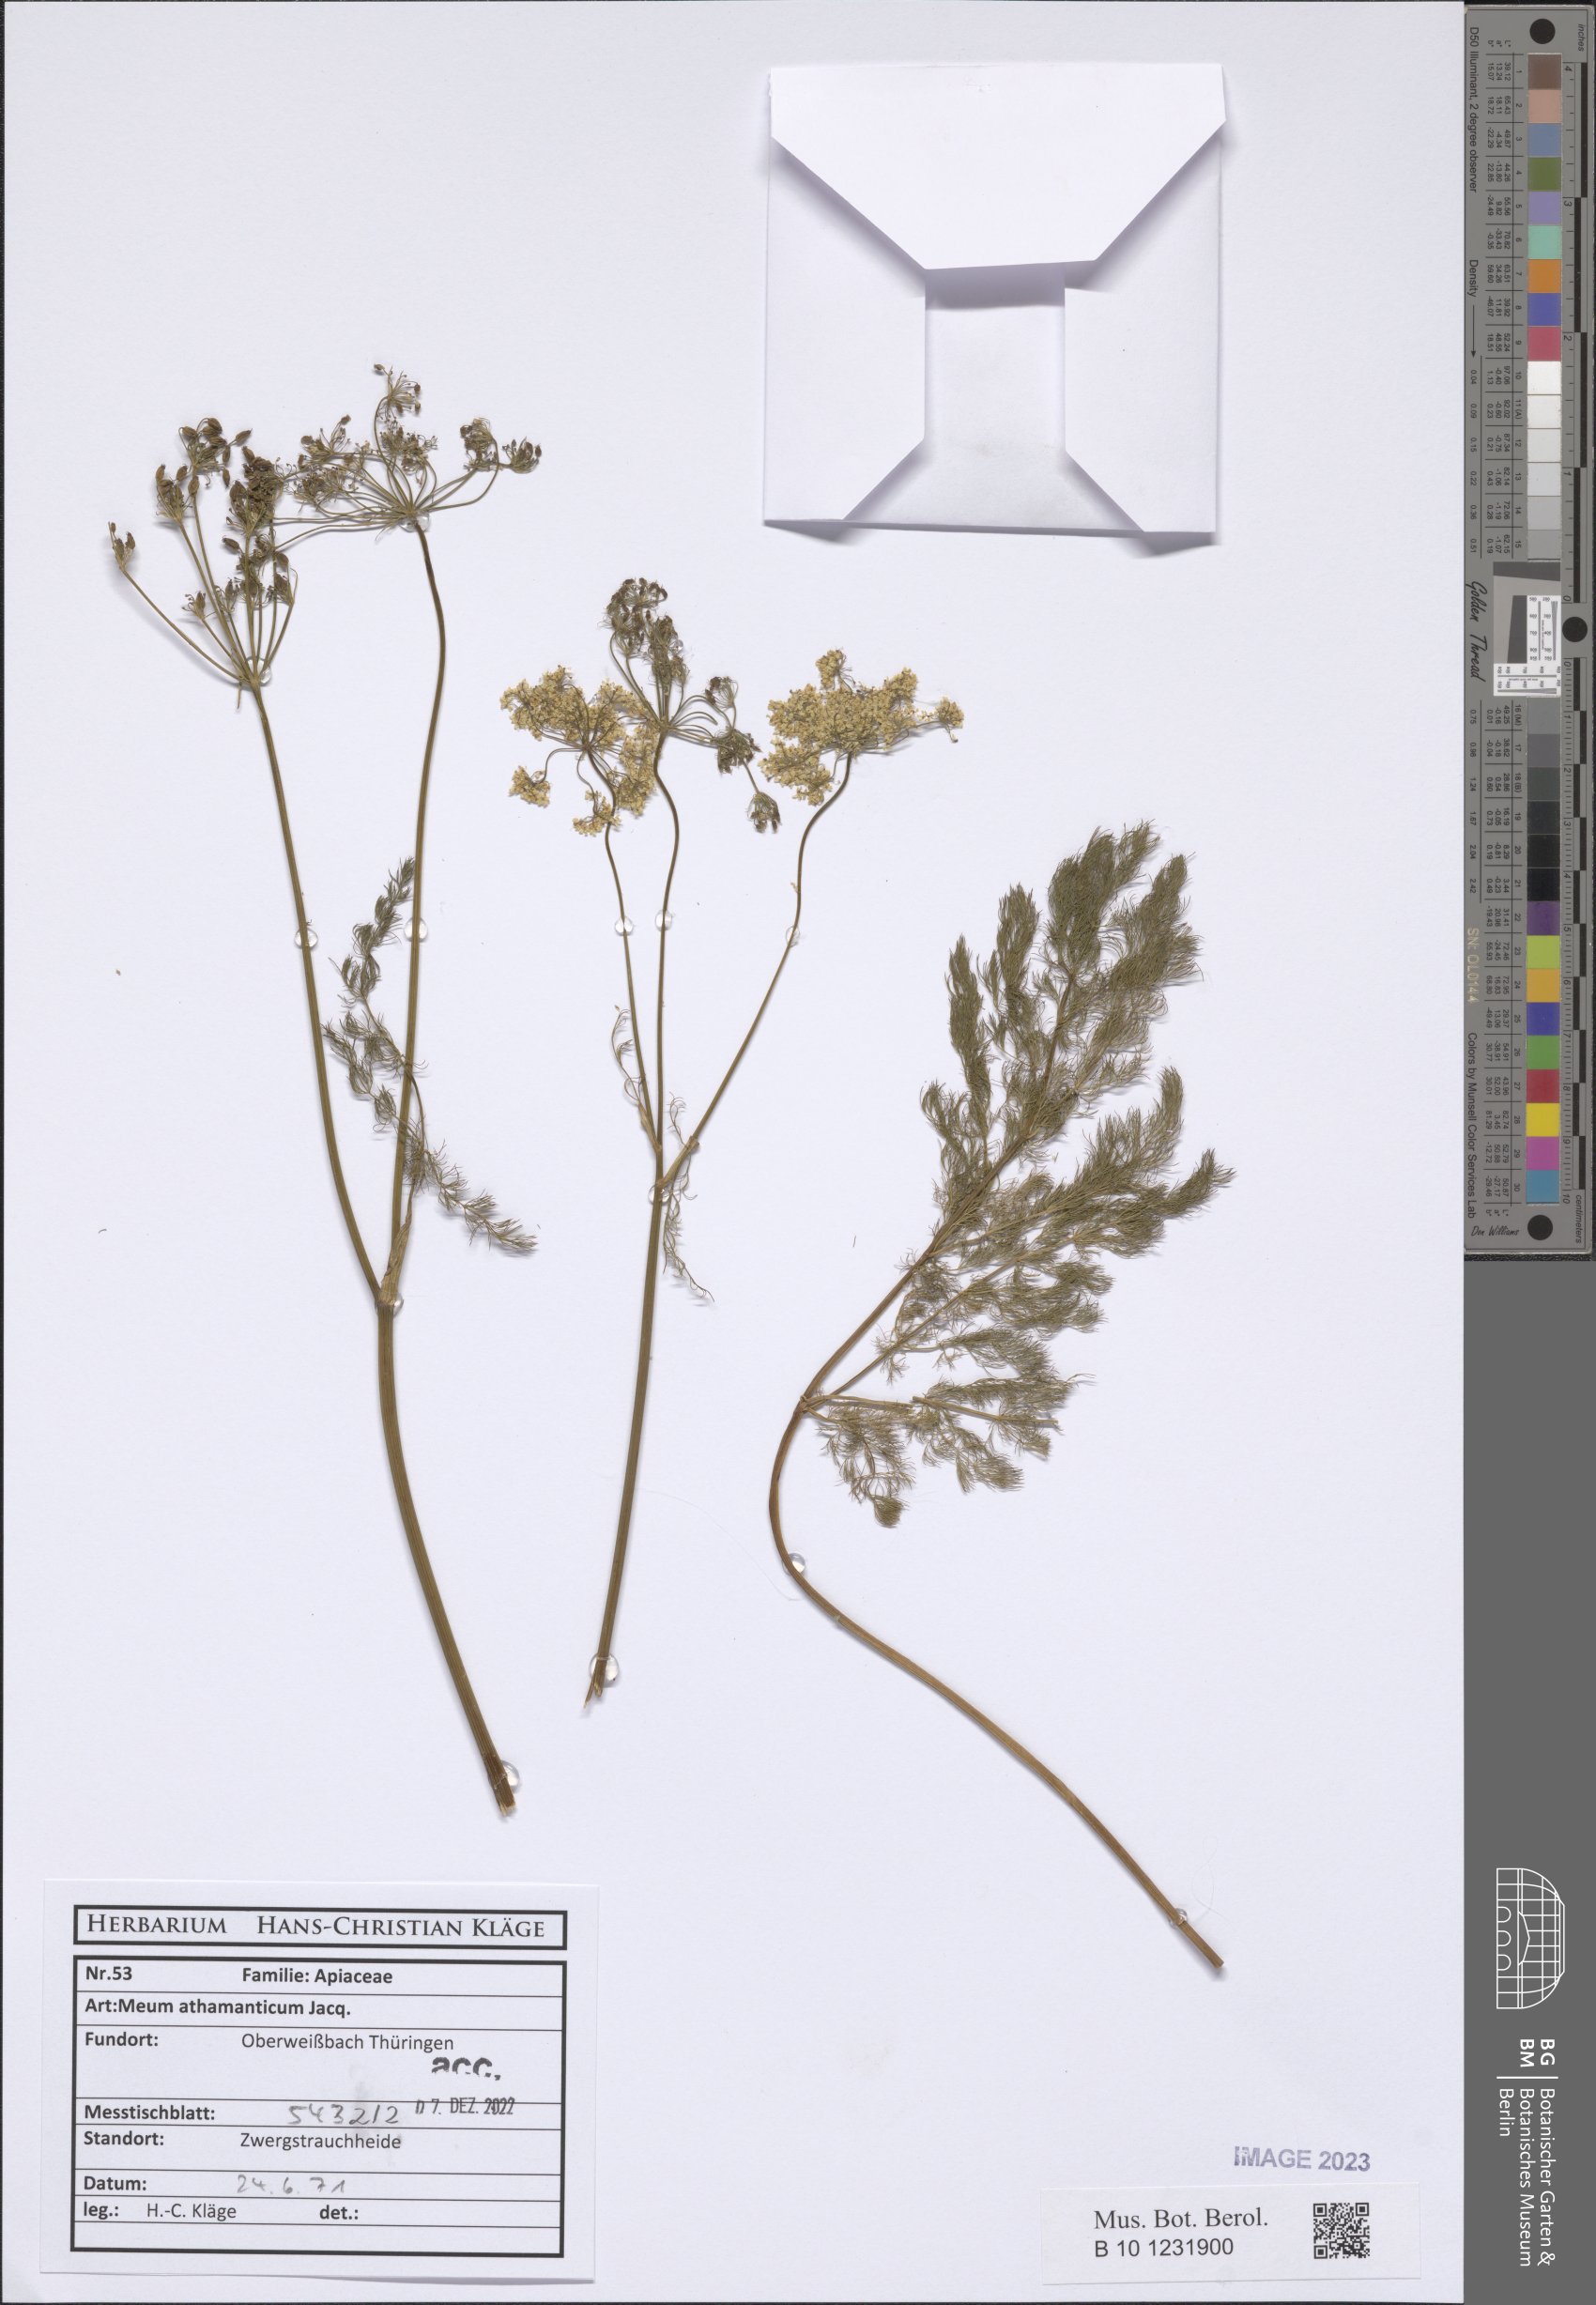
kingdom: Plantae
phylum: Tracheophyta
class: Magnoliopsida
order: Apiales
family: Apiaceae
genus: Meum
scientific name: Meum athamanticum
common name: Spignel
